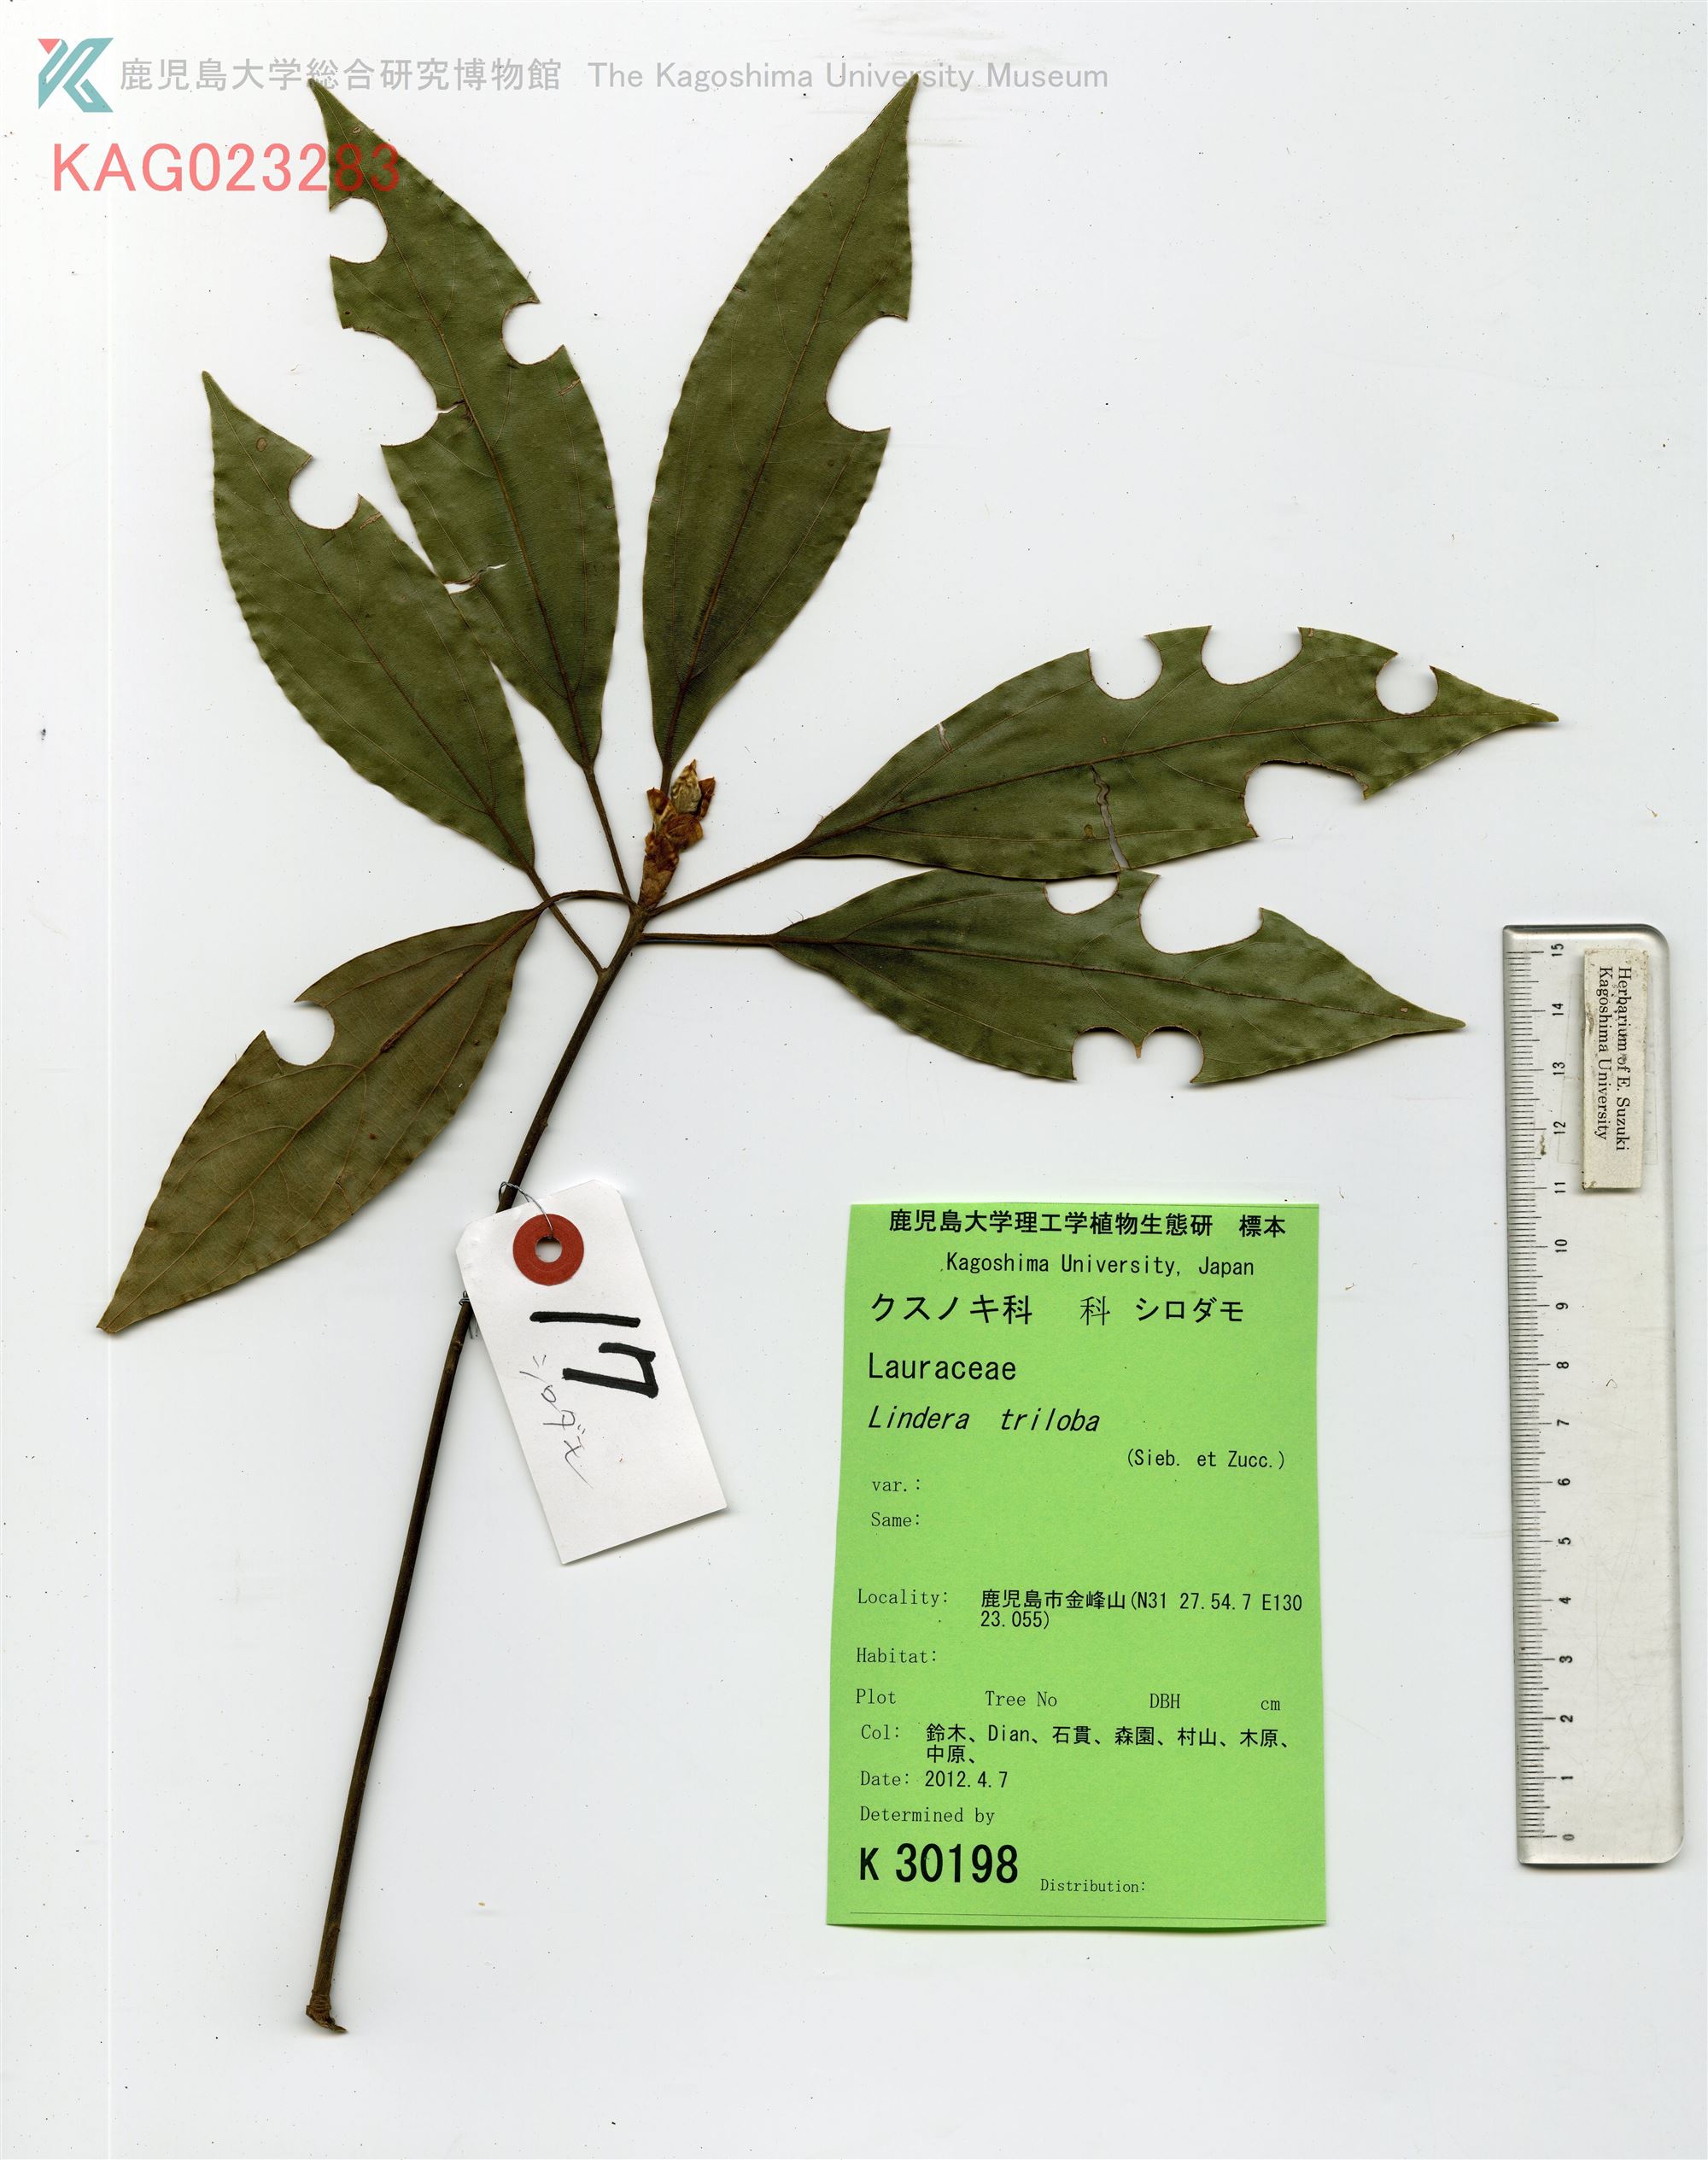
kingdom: Plantae
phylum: Tracheophyta
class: Magnoliopsida
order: Laurales
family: Lauraceae
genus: Neolitsea
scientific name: Neolitsea sericea
